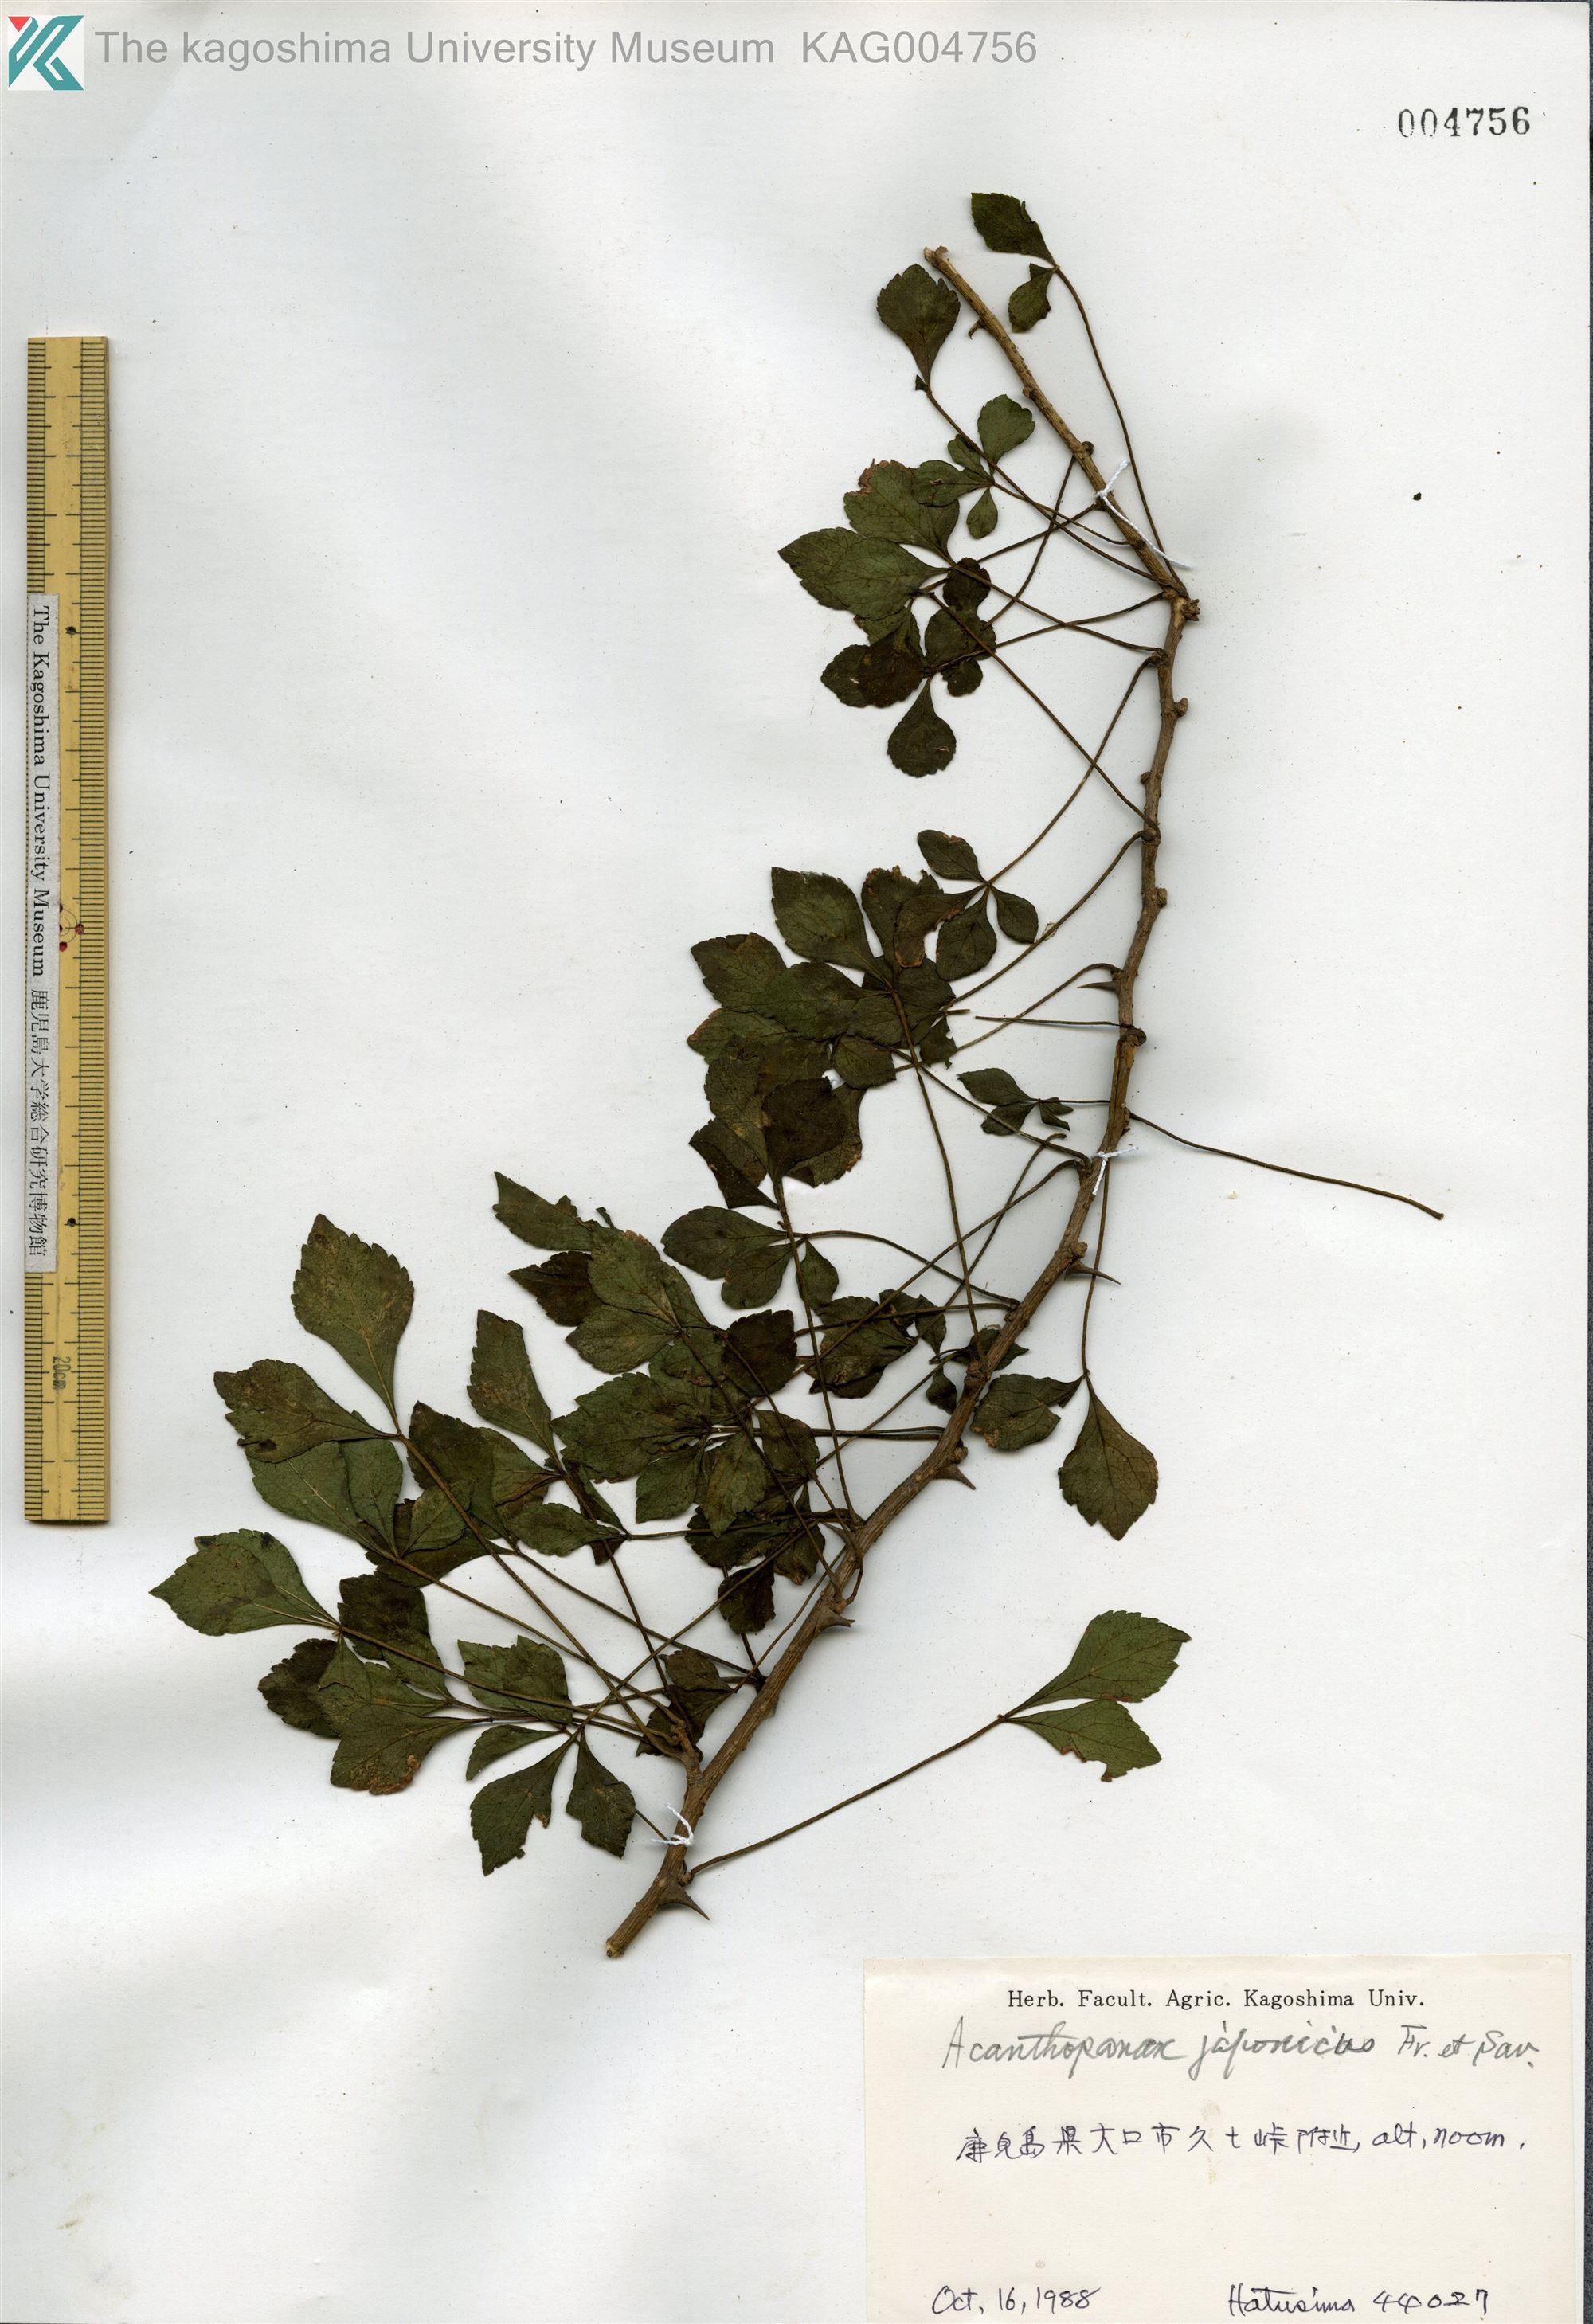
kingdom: Plantae
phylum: Tracheophyta
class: Magnoliopsida
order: Apiales
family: Araliaceae
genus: Eleutherococcus
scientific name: Eleutherococcus japonicus
